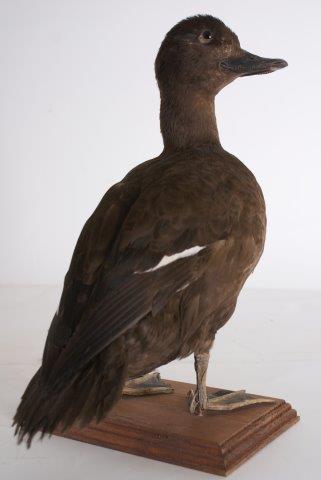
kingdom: Animalia
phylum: Chordata
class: Aves
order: Anseriformes
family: Anatidae
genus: Melanitta
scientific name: Melanitta fusca
